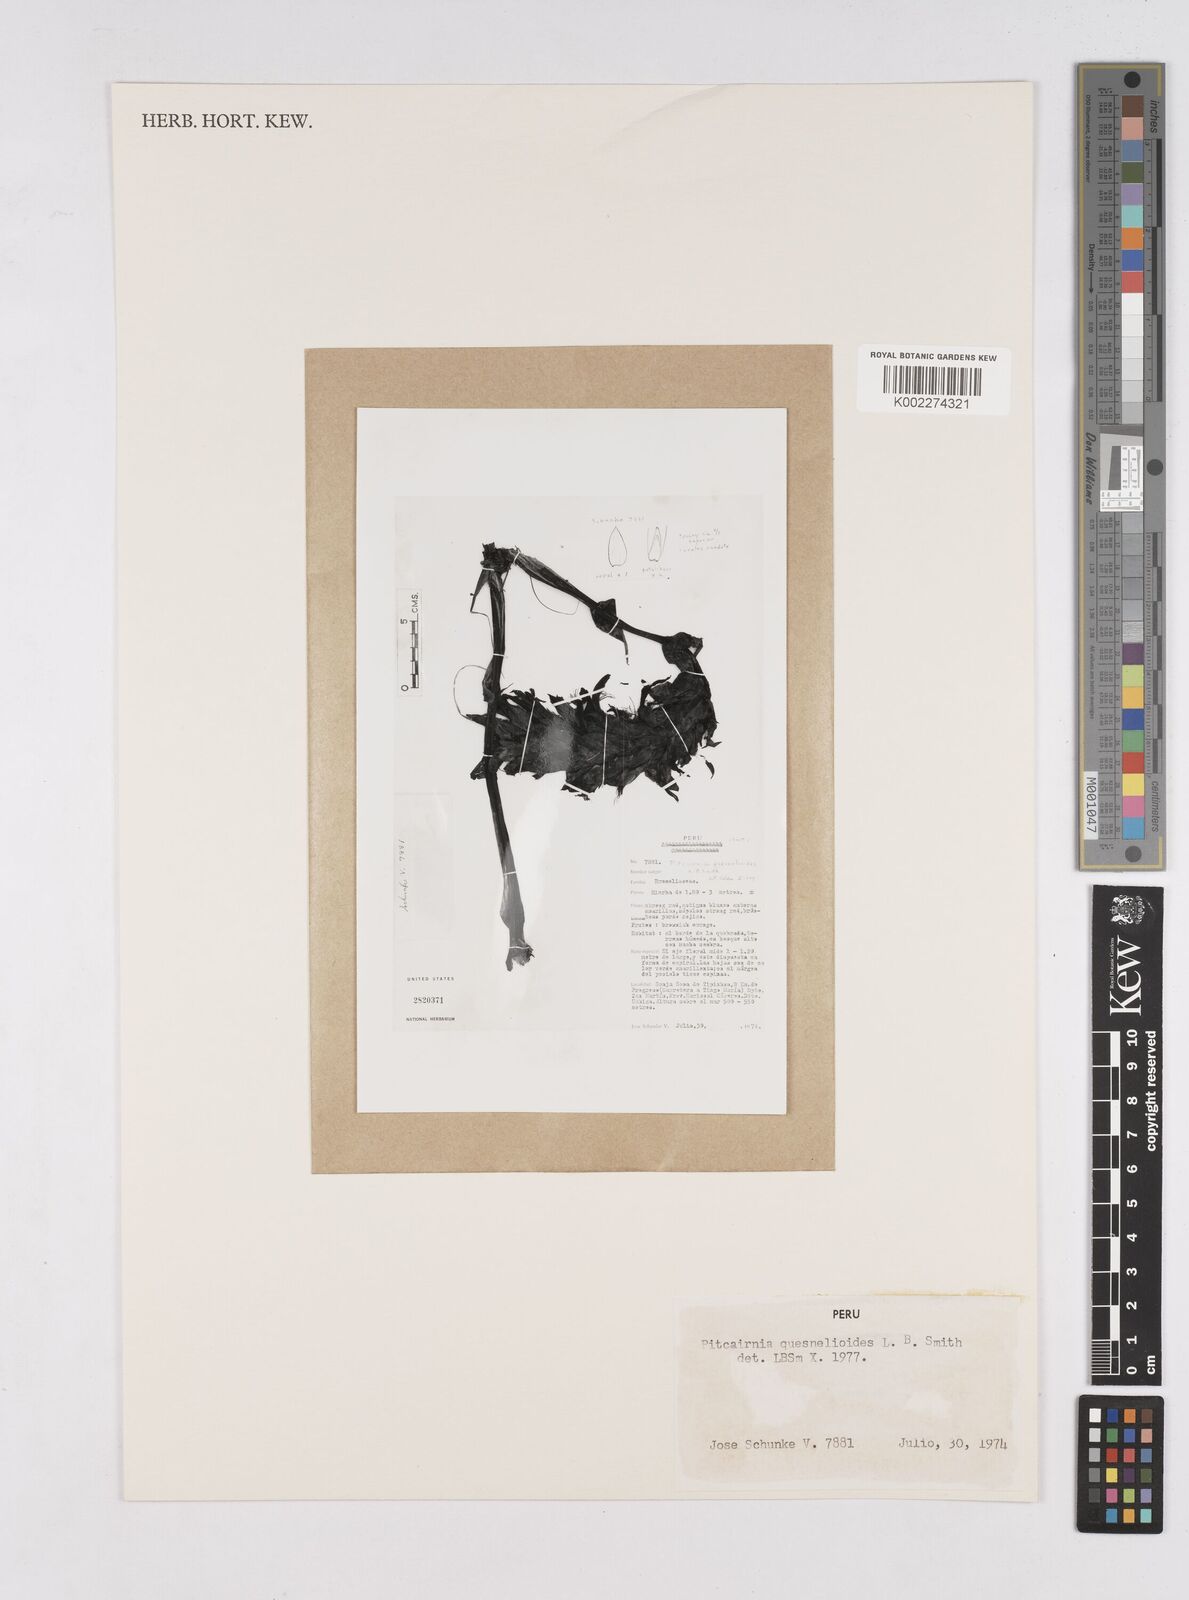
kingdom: Plantae
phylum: Tracheophyta
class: Liliopsida
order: Poales
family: Bromeliaceae
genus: Pitcairnia
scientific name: Pitcairnia quesnelioides
